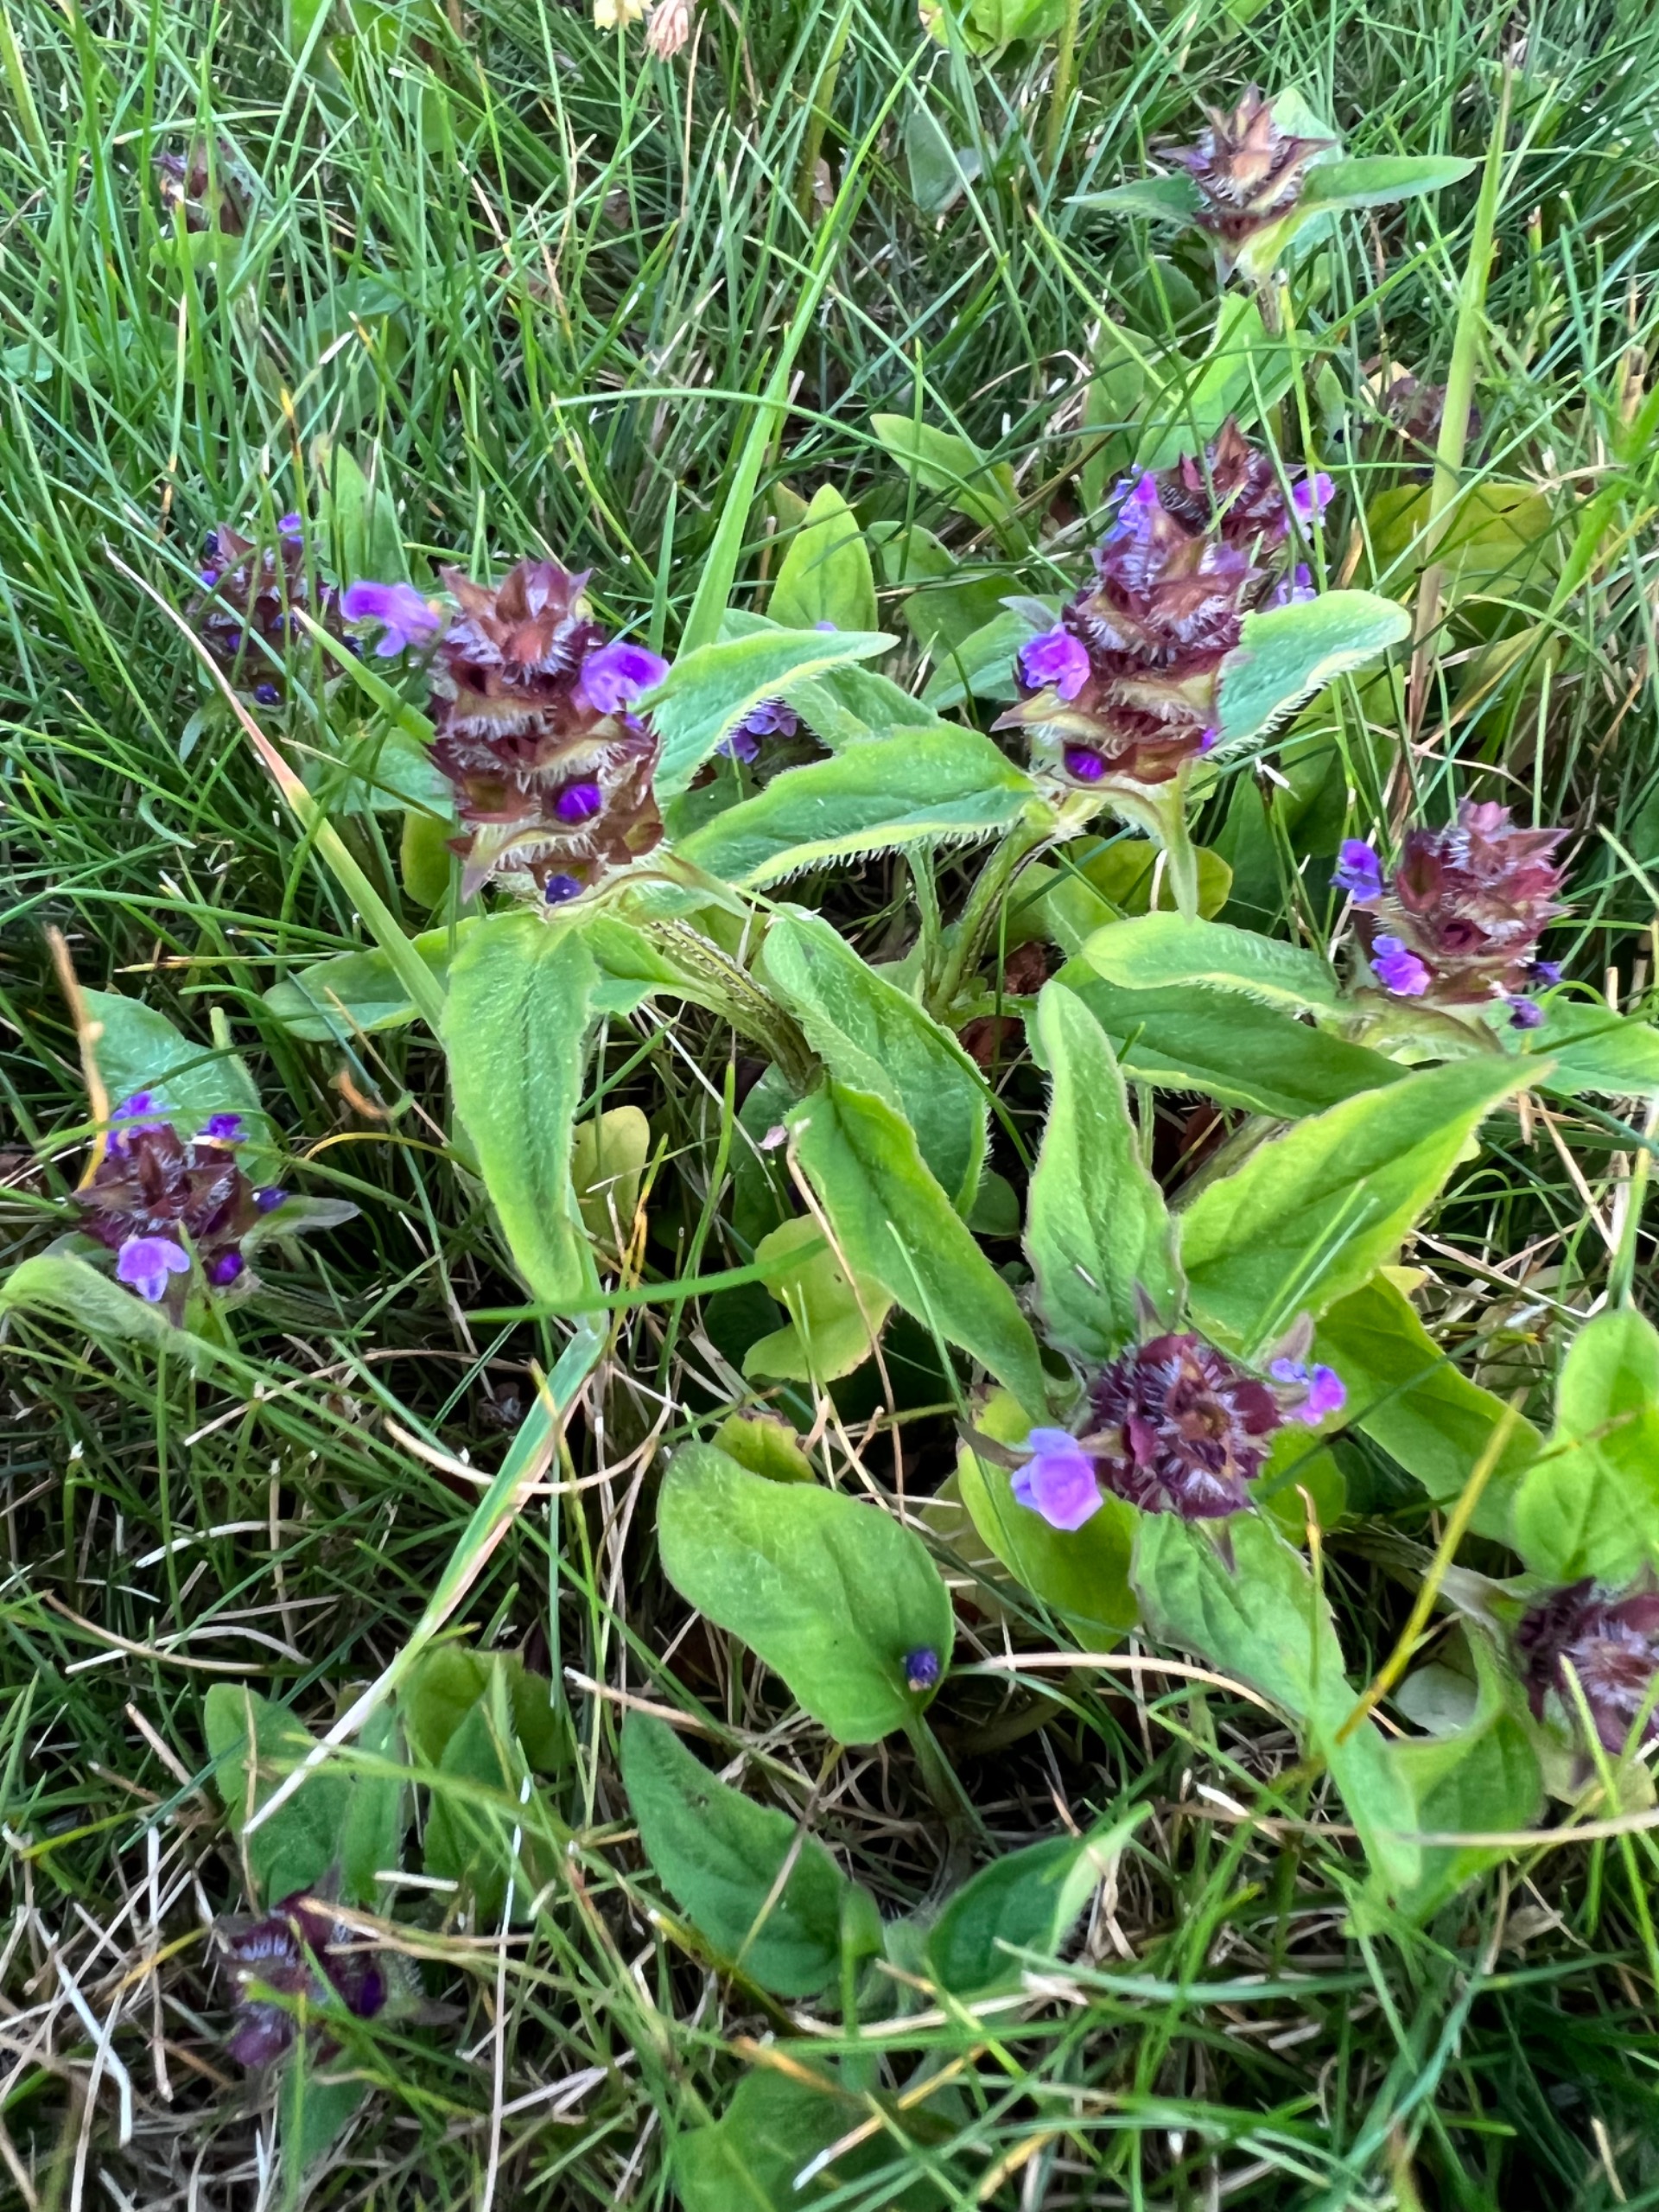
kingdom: Plantae
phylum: Tracheophyta
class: Magnoliopsida
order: Lamiales
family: Lamiaceae
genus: Prunella
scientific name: Prunella vulgaris
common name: Almindelig brunelle
